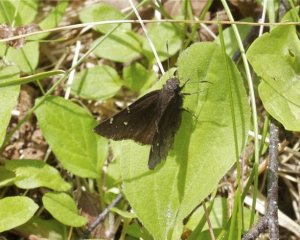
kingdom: Animalia
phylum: Arthropoda
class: Insecta
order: Lepidoptera
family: Hesperiidae
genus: Autochton
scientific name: Autochton
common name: Northern Cloudywing
